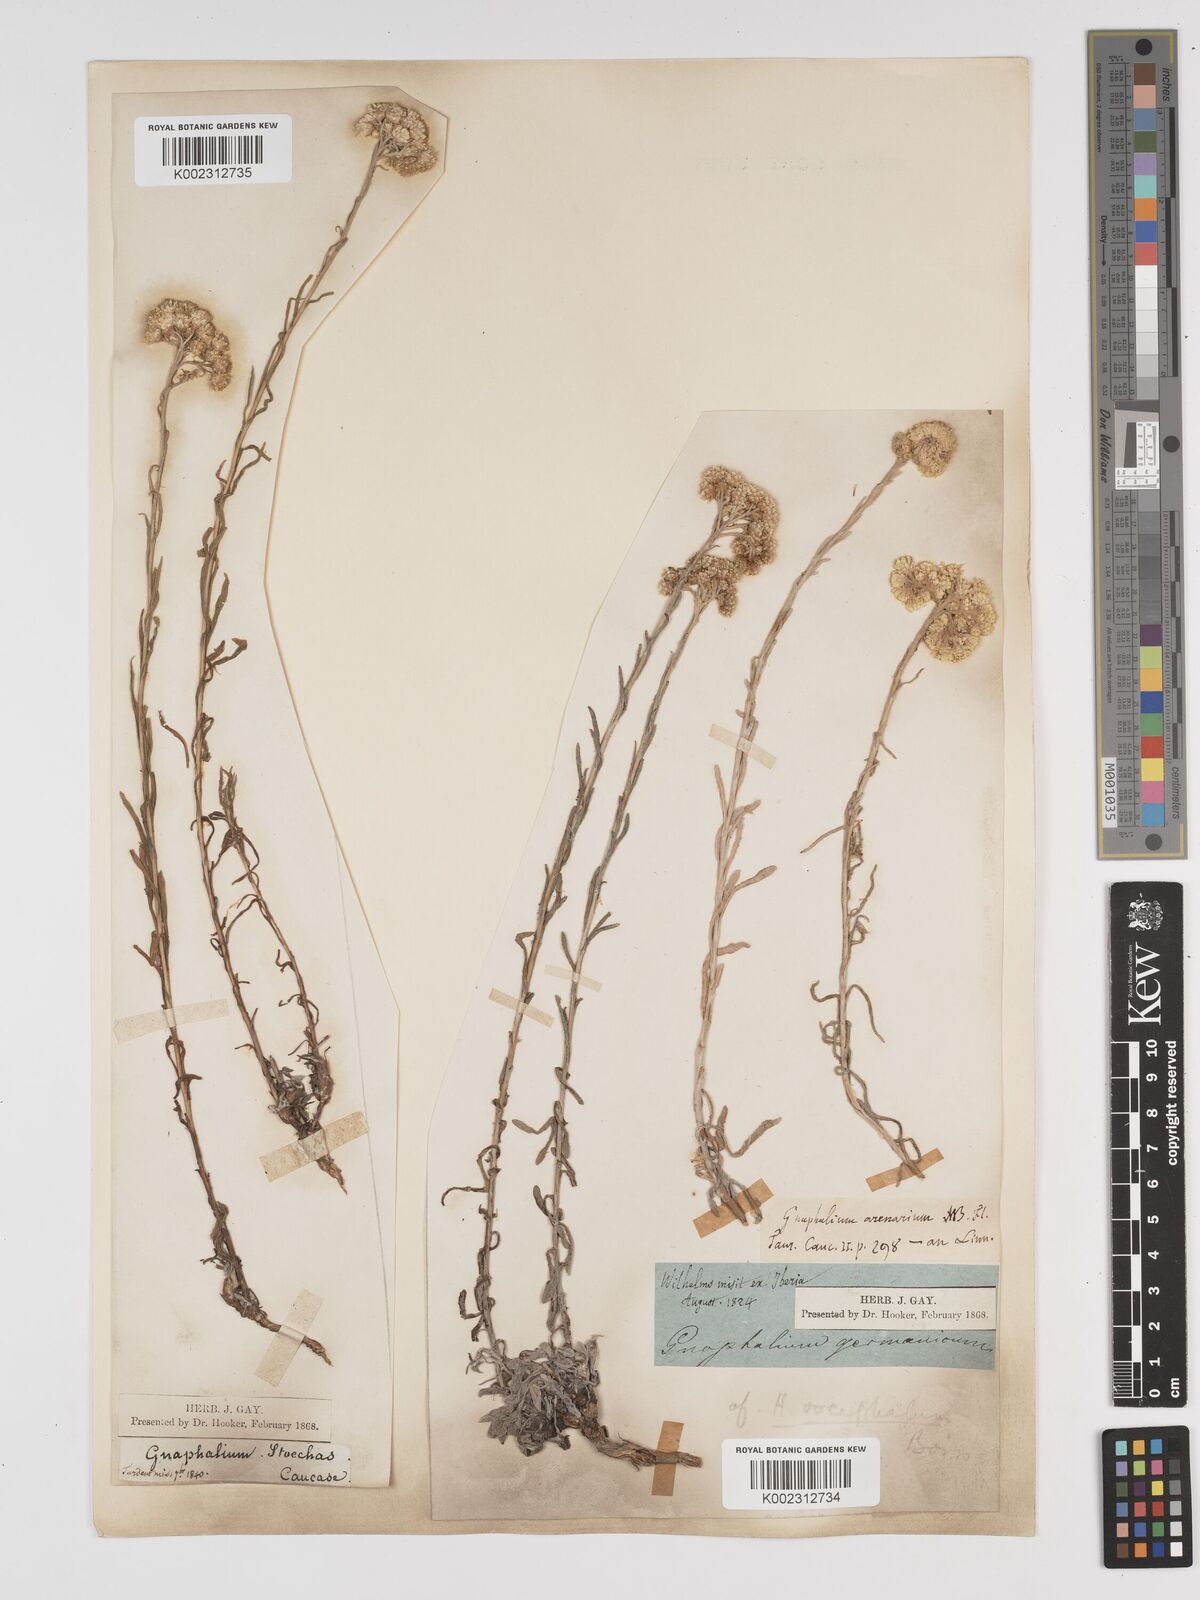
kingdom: Plantae
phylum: Tracheophyta
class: Magnoliopsida
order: Asterales
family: Asteraceae
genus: Helichrysum
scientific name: Helichrysum oocephalum
